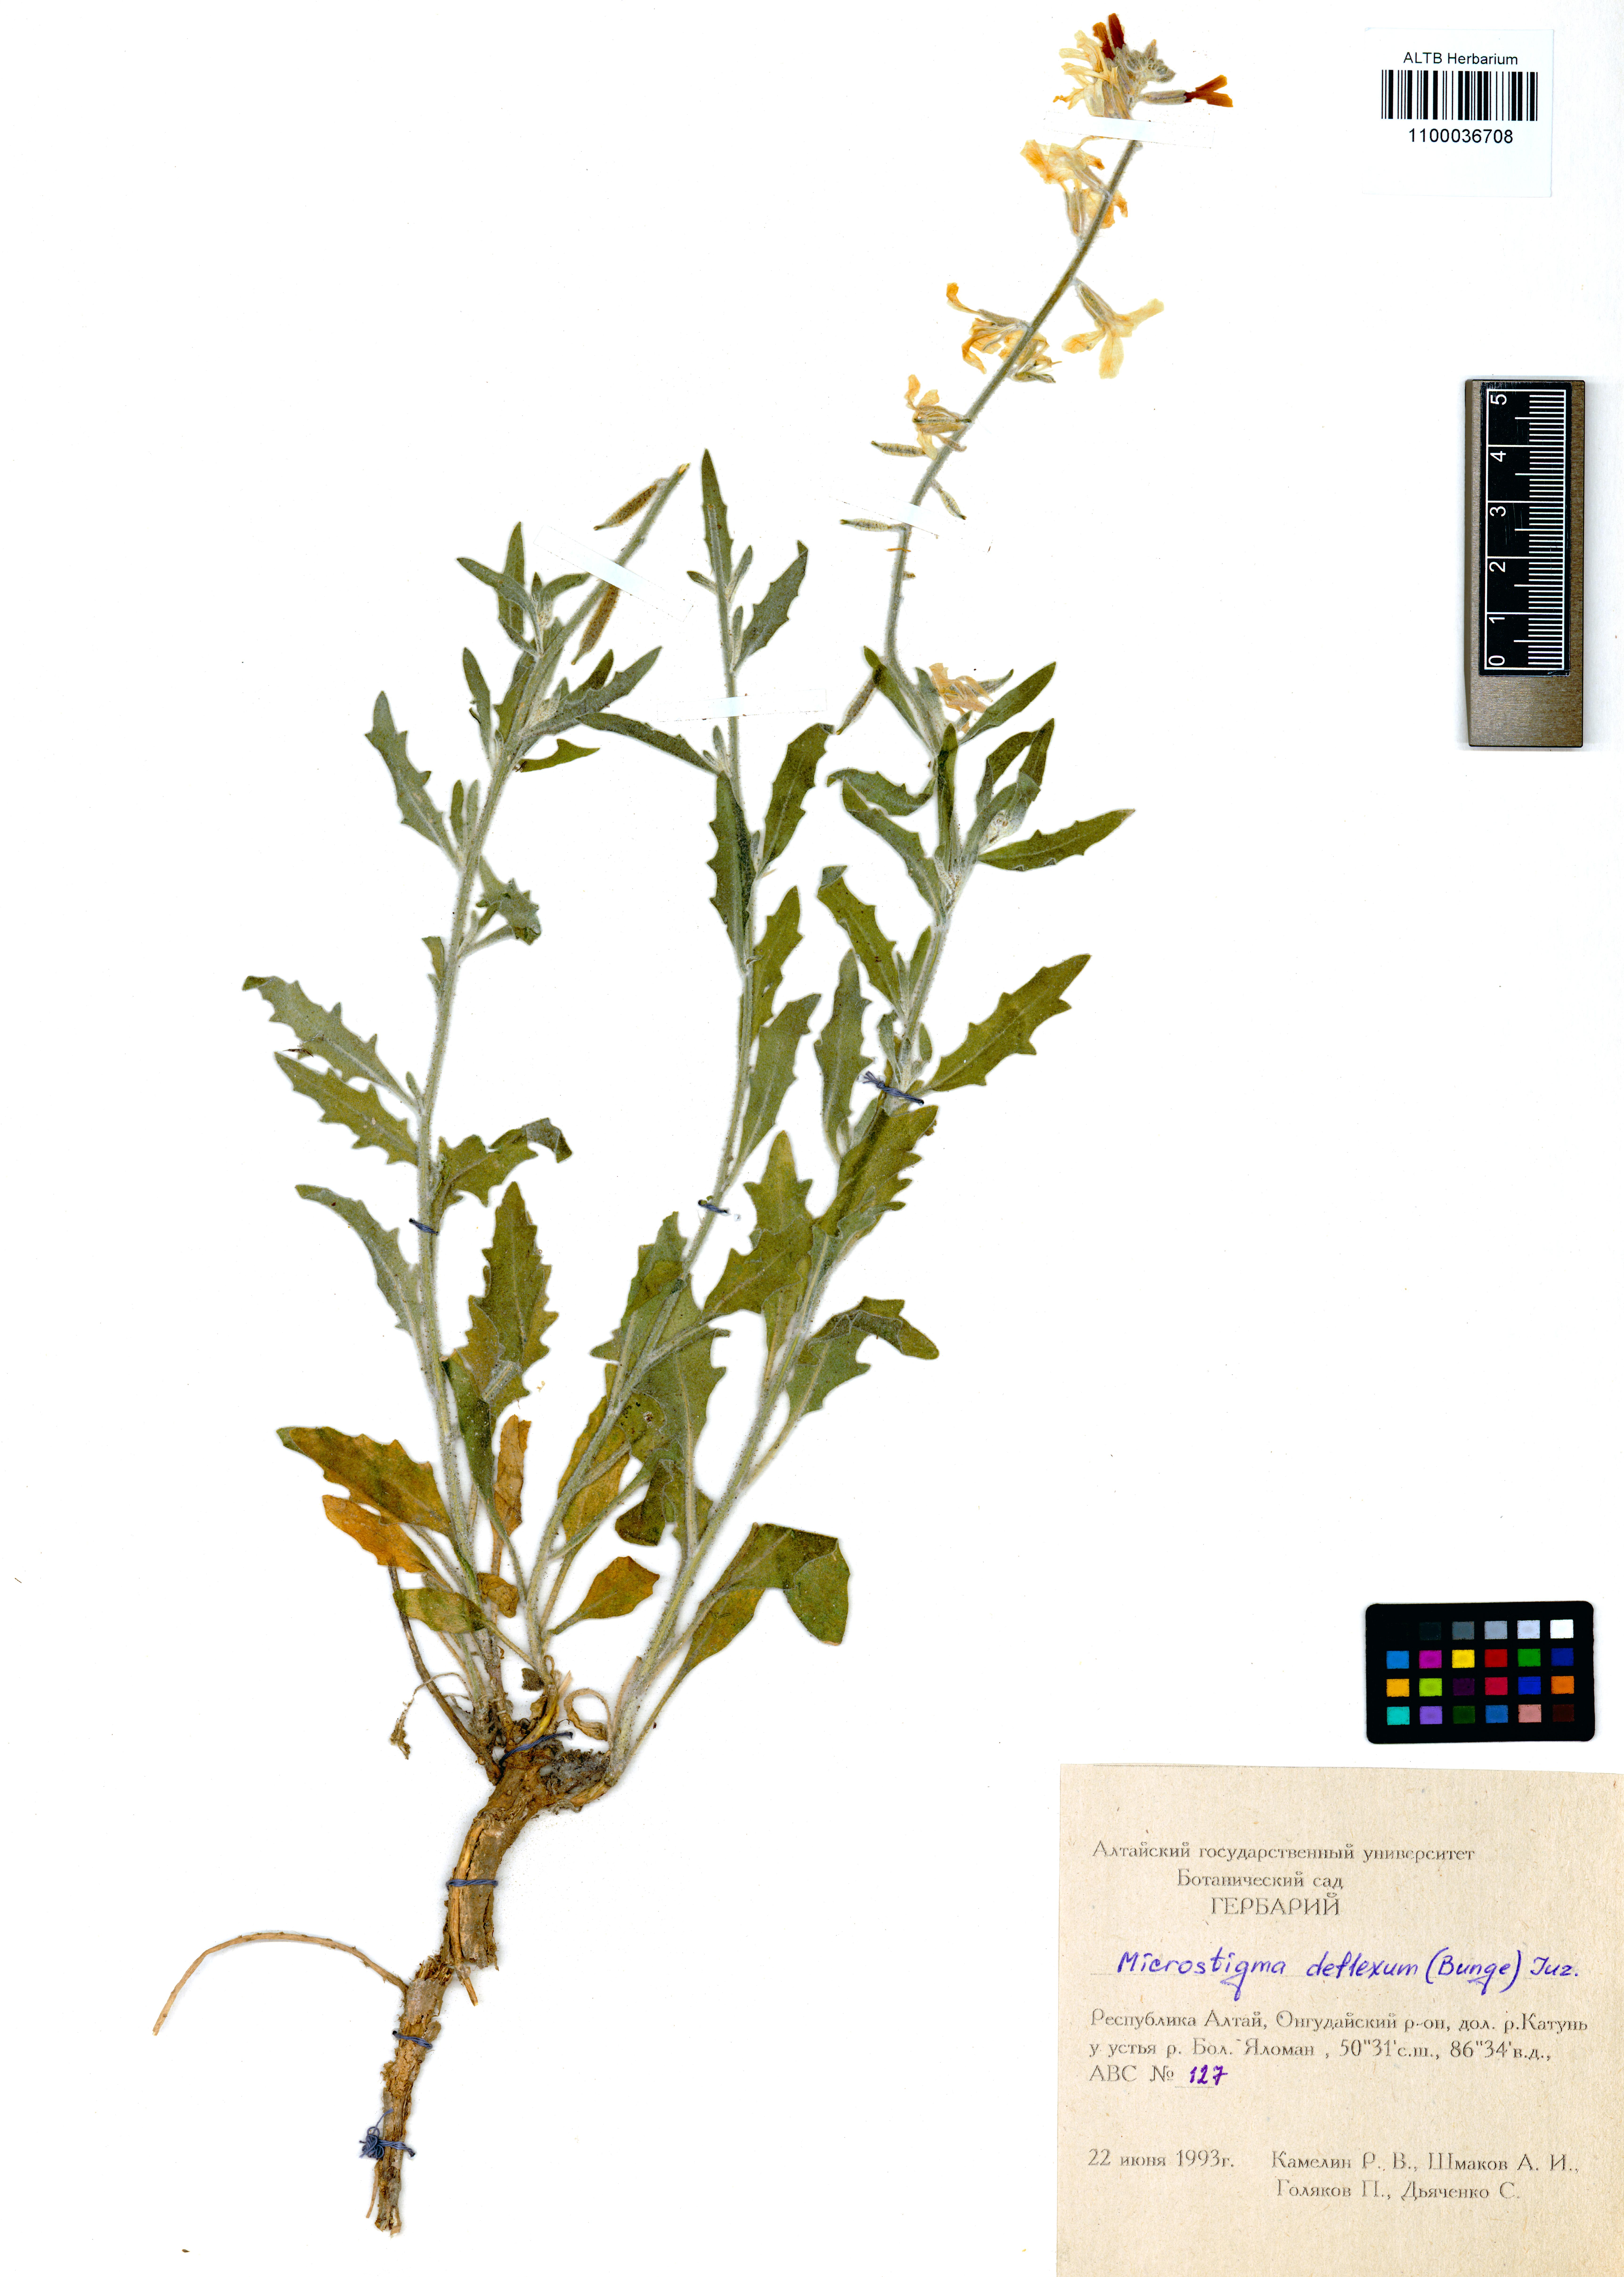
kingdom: Plantae
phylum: Tracheophyta
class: Magnoliopsida
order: Brassicales
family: Brassicaceae
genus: Microstigma
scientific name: Microstigma deflexum
